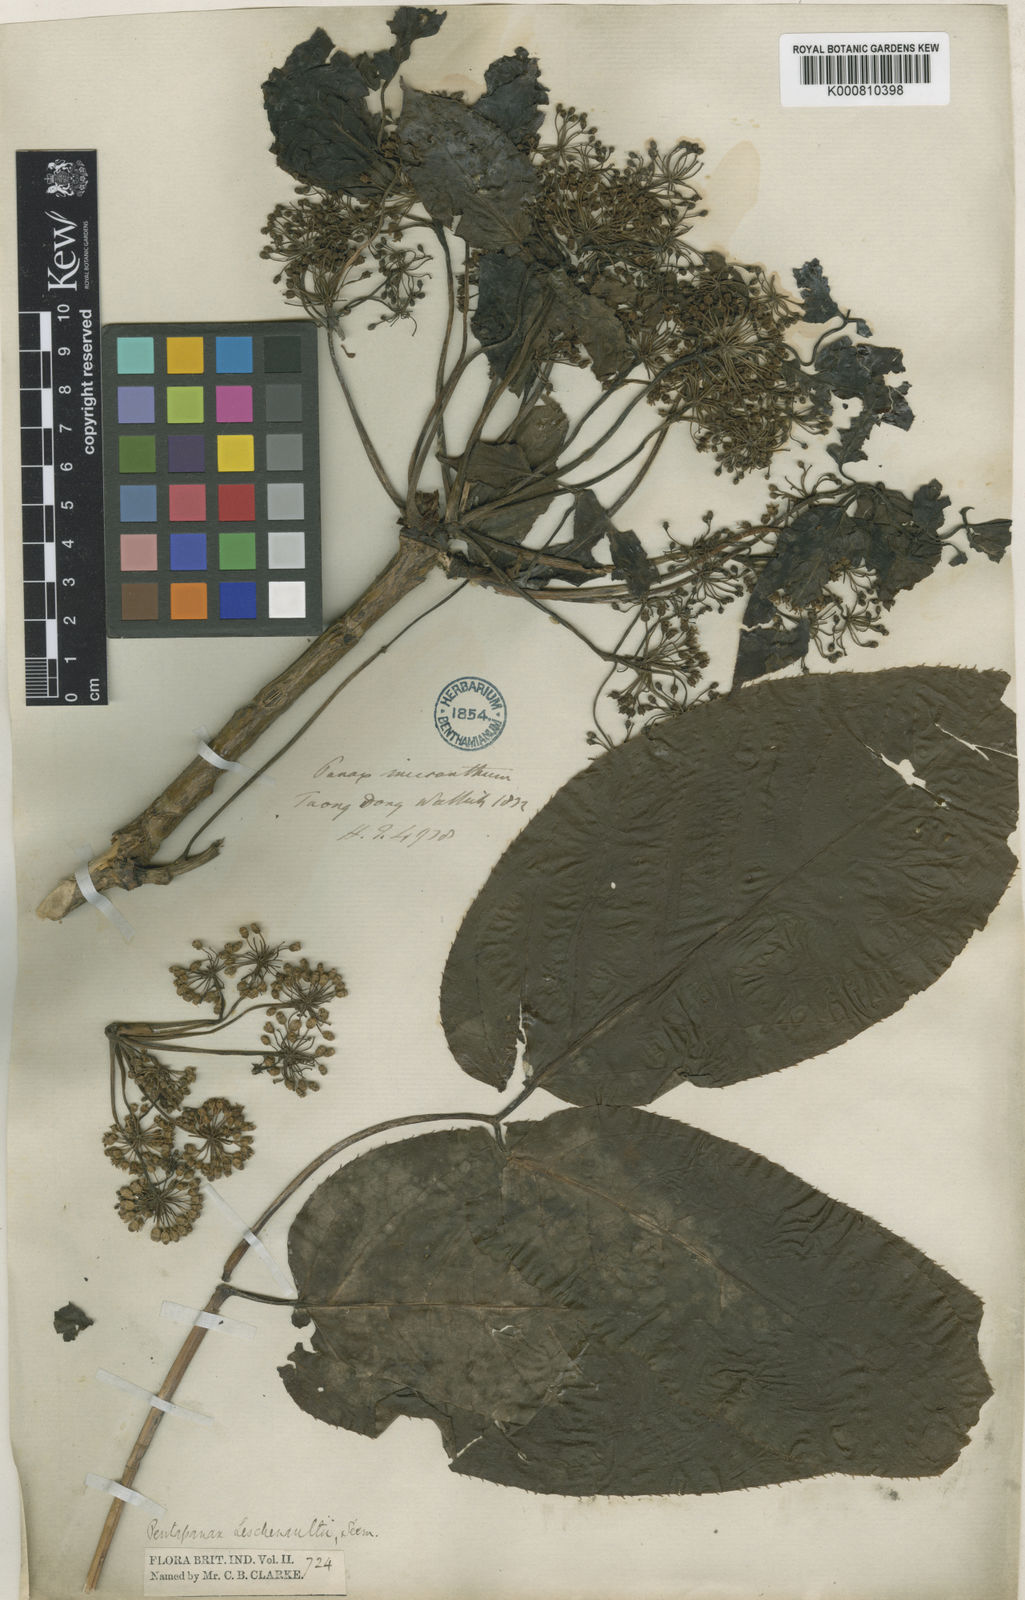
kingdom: Plantae
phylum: Tracheophyta
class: Magnoliopsida
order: Apiales
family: Araliaceae
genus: Aralia
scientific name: Aralia leschenaultii
